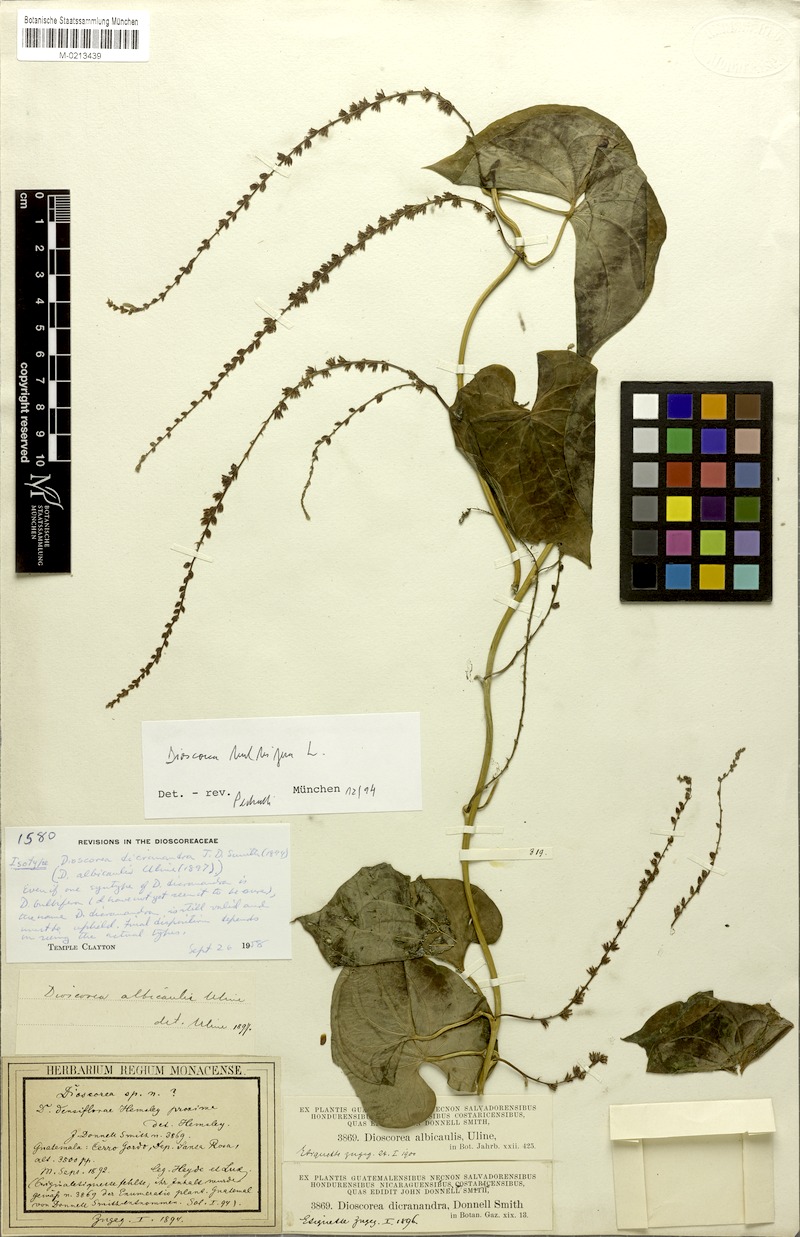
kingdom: Plantae
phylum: Tracheophyta
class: Liliopsida
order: Dioscoreales
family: Dioscoreaceae
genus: Dioscorea
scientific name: Dioscorea dicranandra
